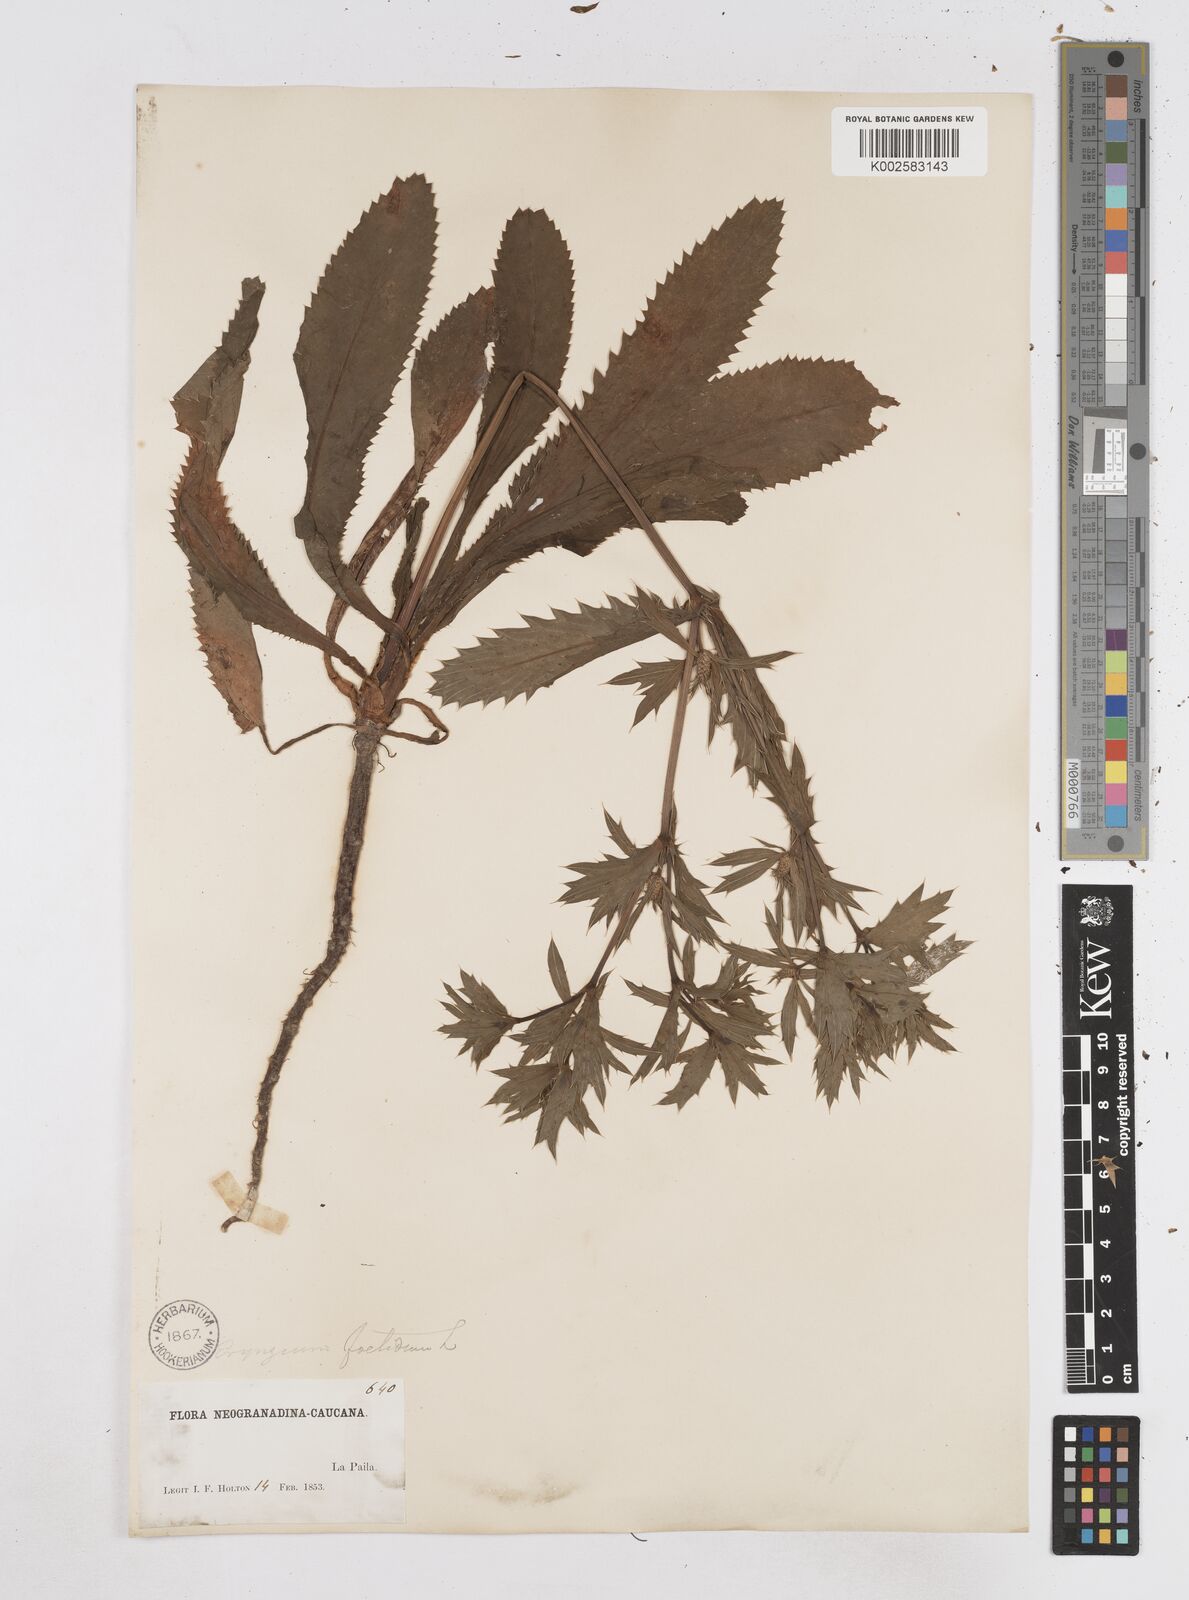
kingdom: Plantae
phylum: Tracheophyta
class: Magnoliopsida
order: Apiales
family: Apiaceae
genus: Eryngium
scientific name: Eryngium foetidum
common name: Fitweed
